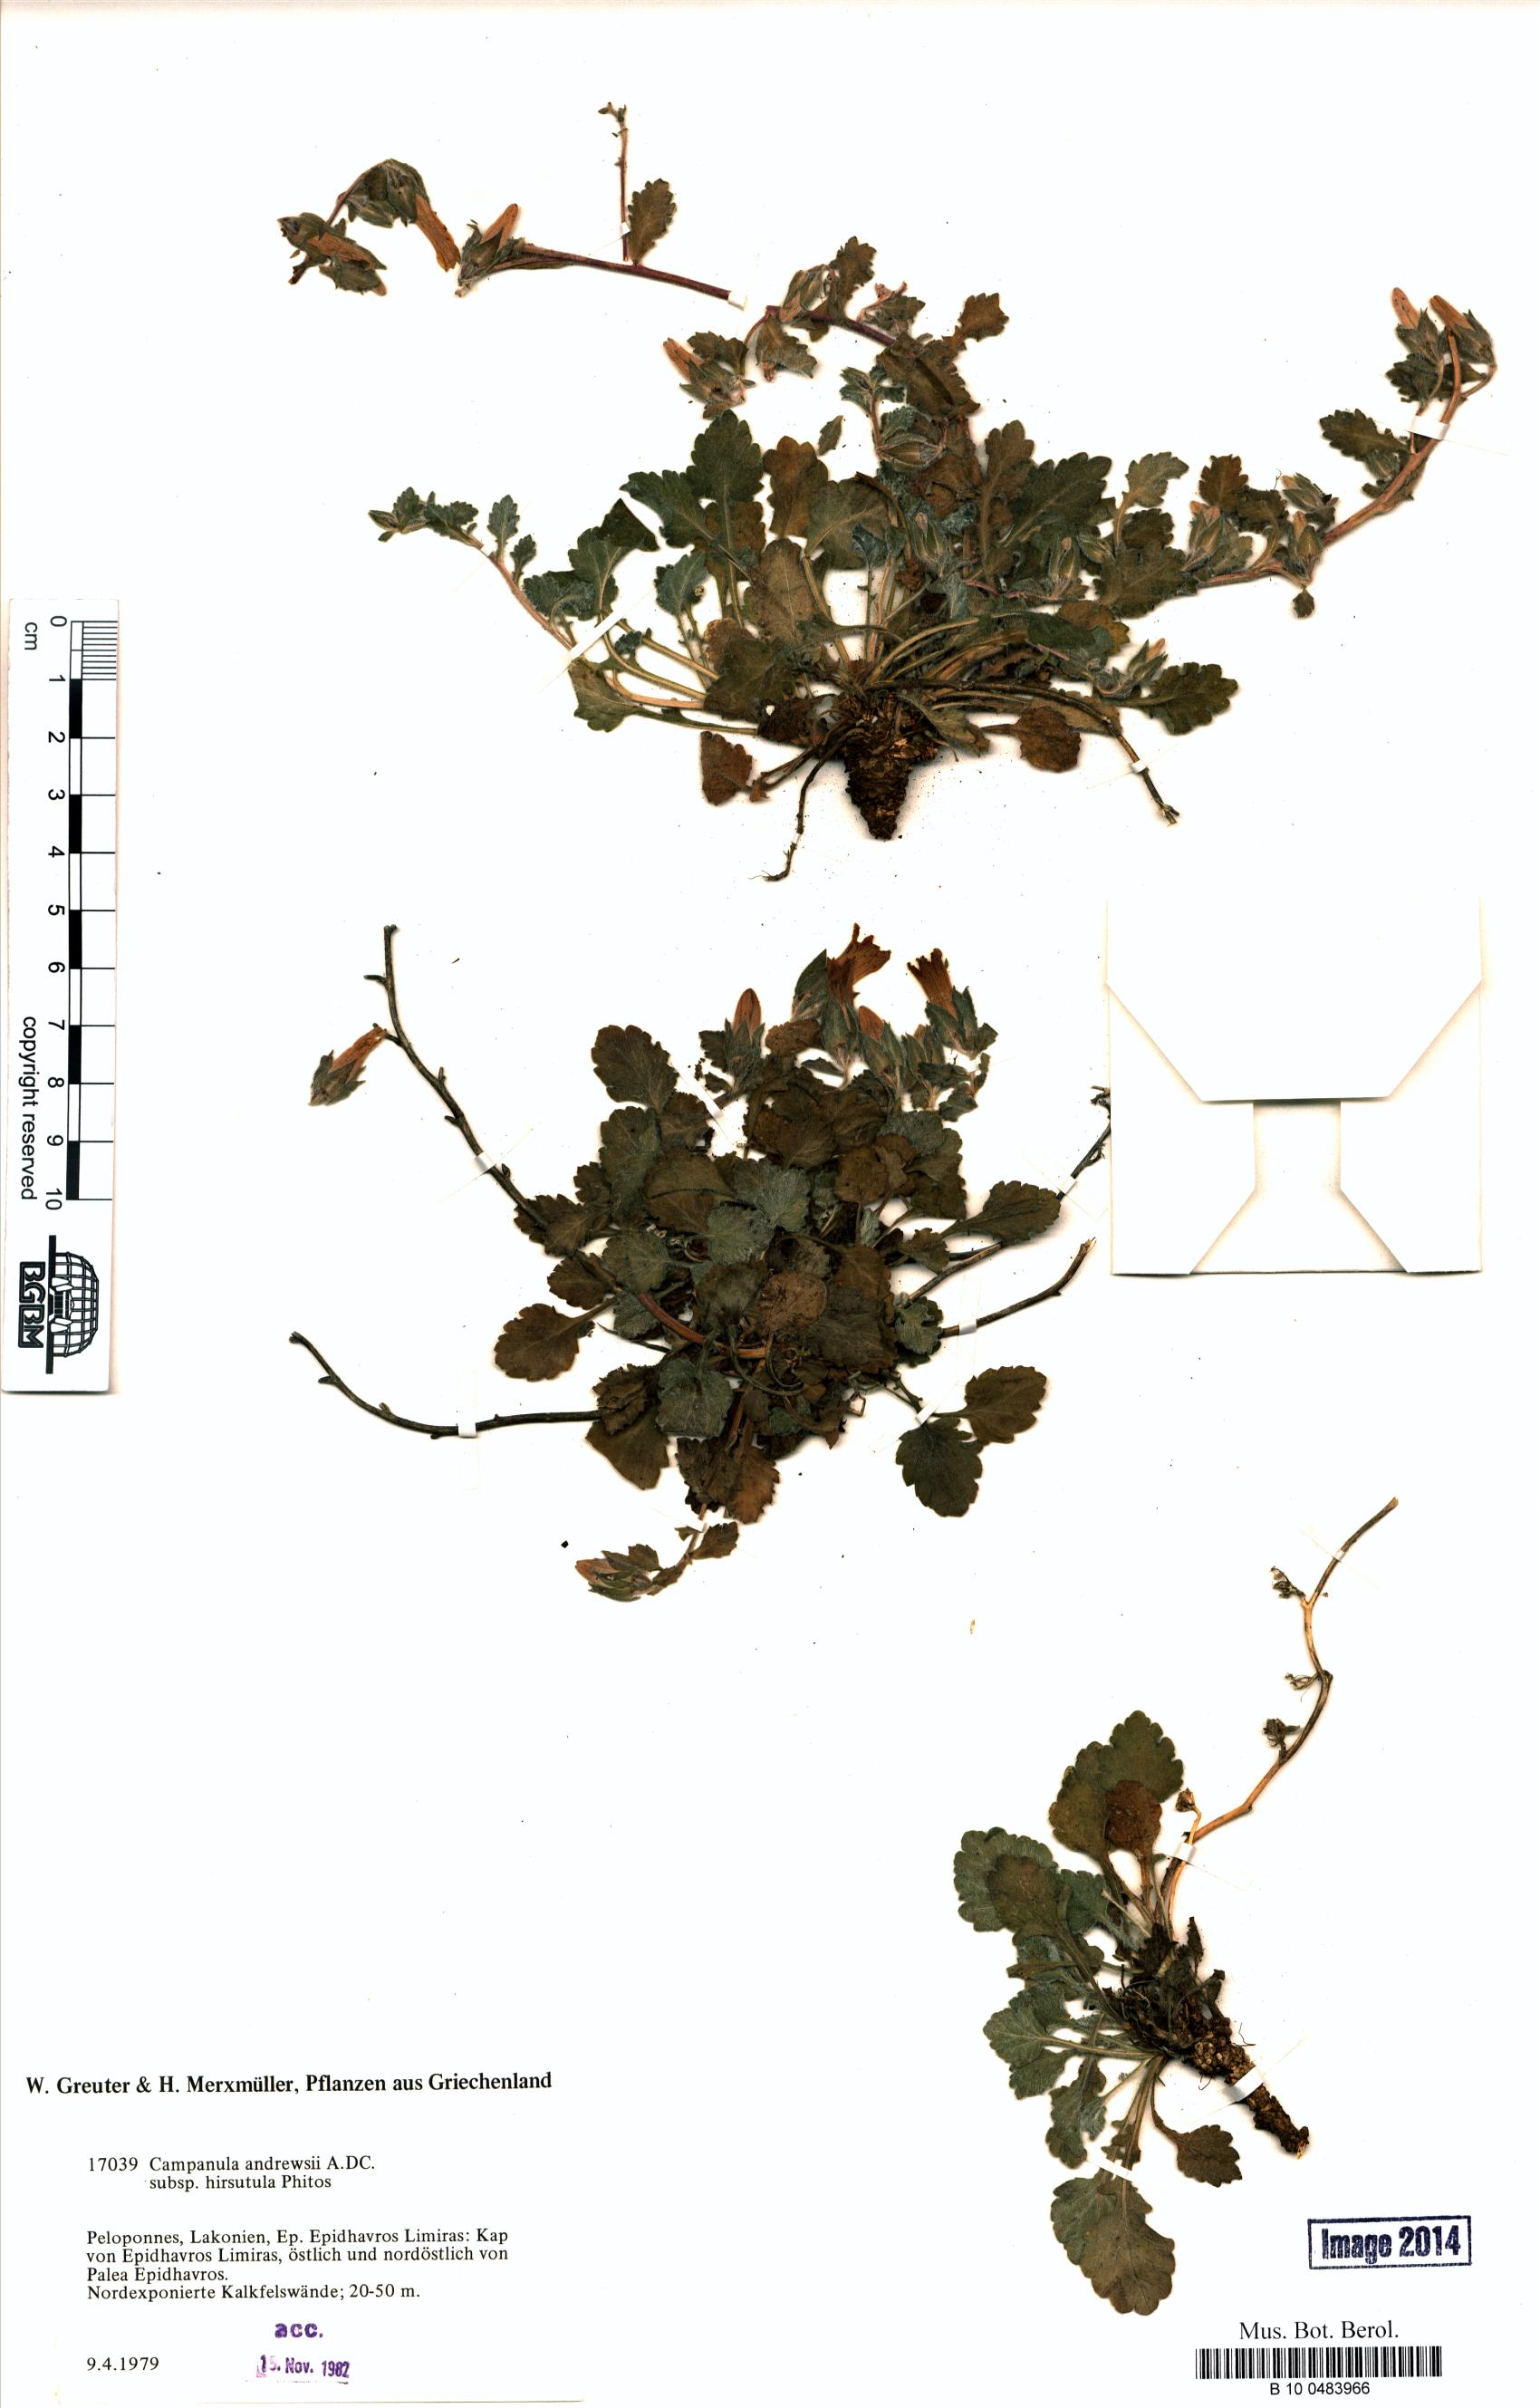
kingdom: Plantae
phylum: Tracheophyta
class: Magnoliopsida
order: Asterales
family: Campanulaceae
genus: Campanula
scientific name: Campanula andrewsii
